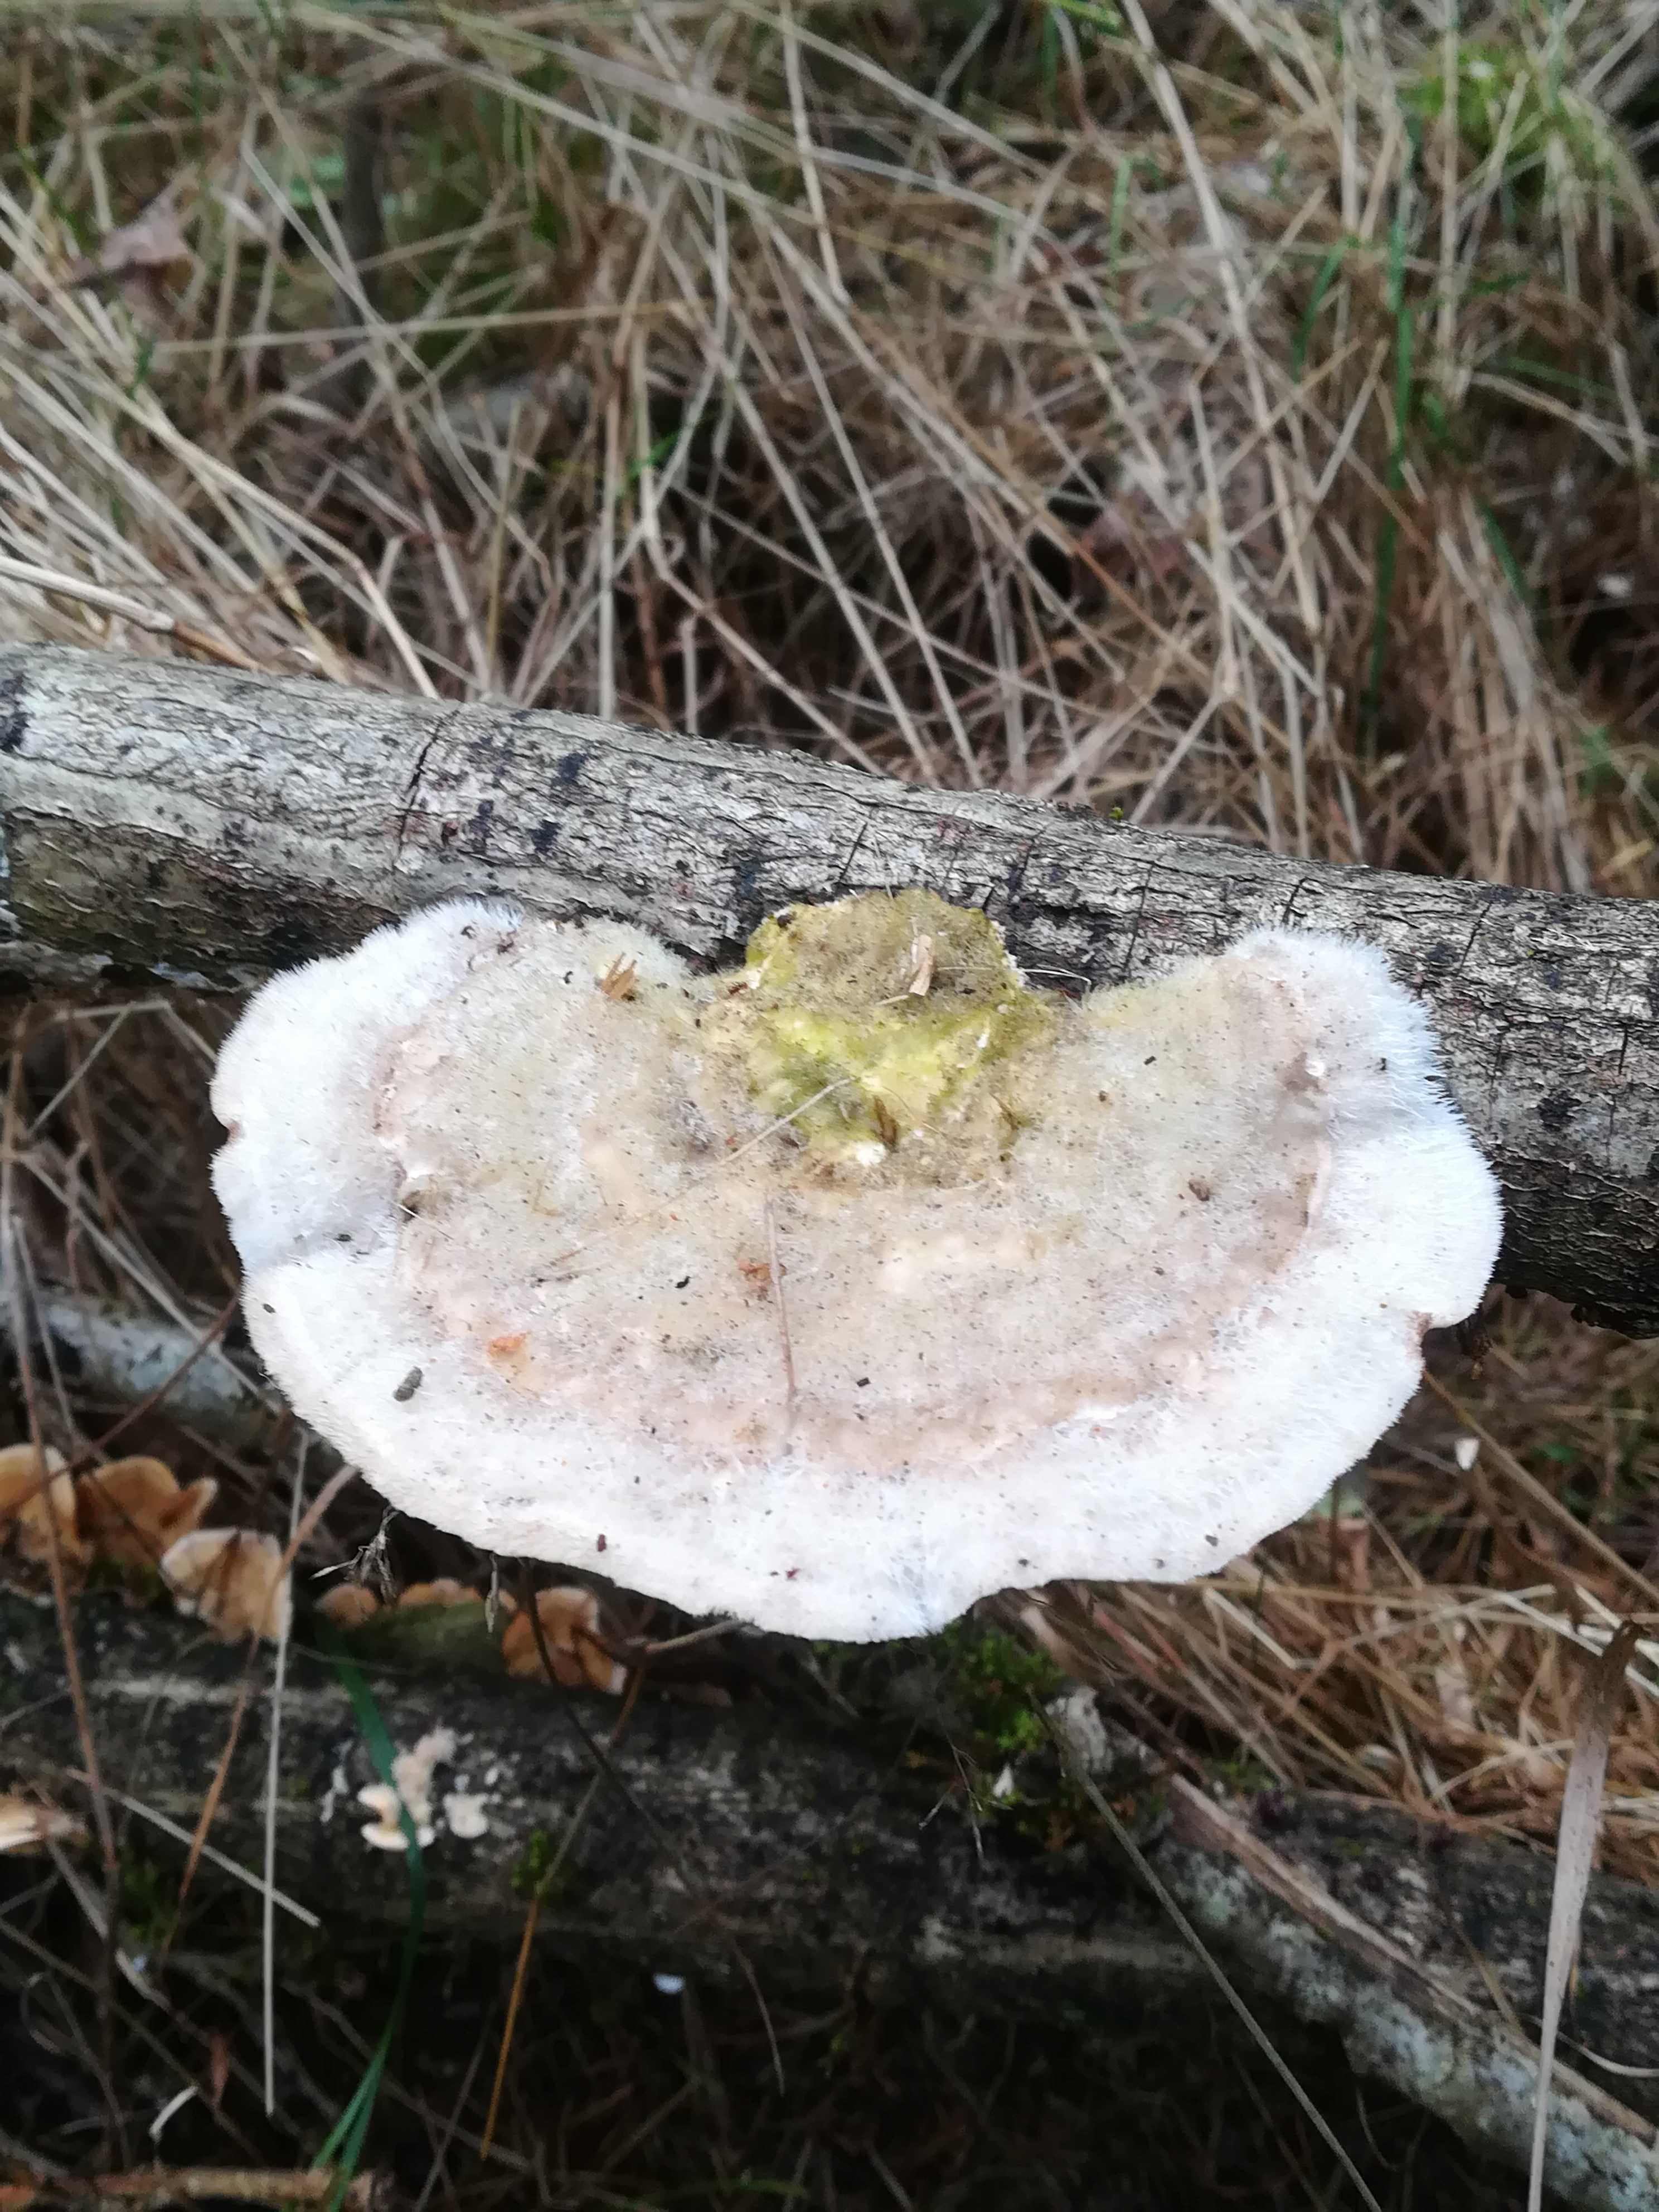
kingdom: Fungi
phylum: Basidiomycota
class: Agaricomycetes
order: Polyporales
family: Polyporaceae
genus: Trametes
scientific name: Trametes hirsuta
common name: håret læderporesvamp
